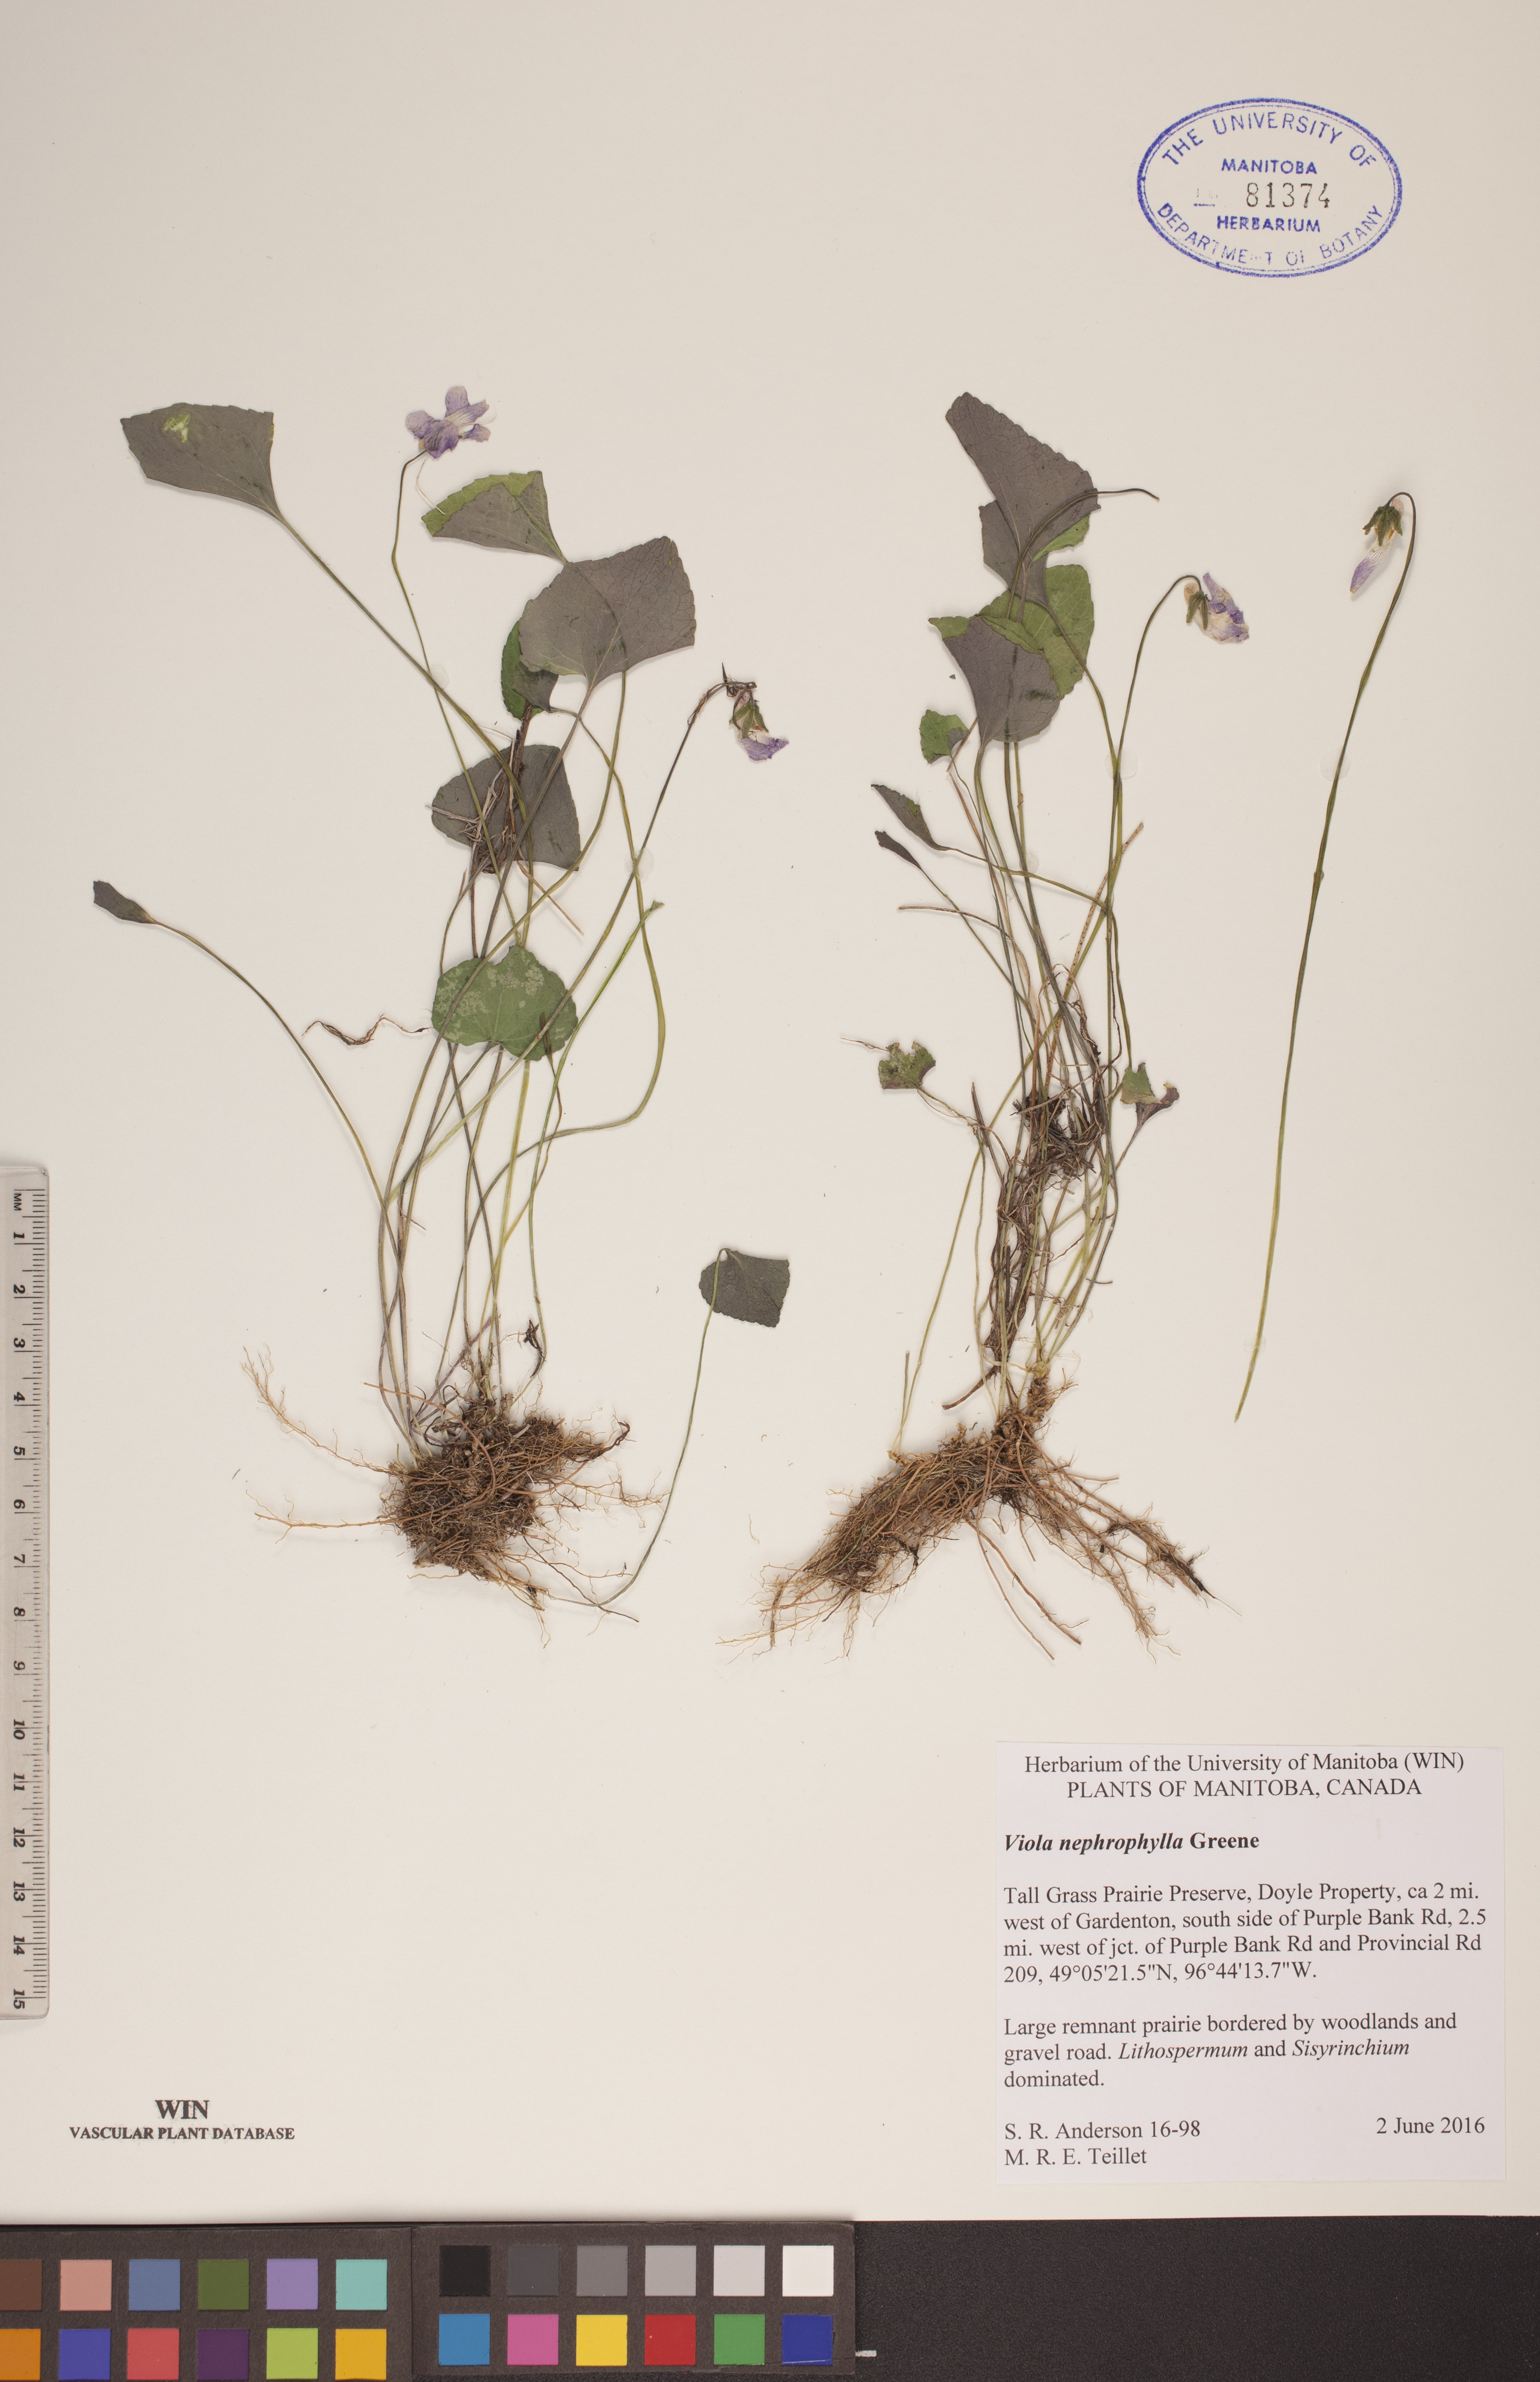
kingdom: Plantae
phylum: Tracheophyta
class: Magnoliopsida
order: Malpighiales
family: Violaceae
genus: Viola
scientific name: Viola nephrophylla
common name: Blue meadow violet
